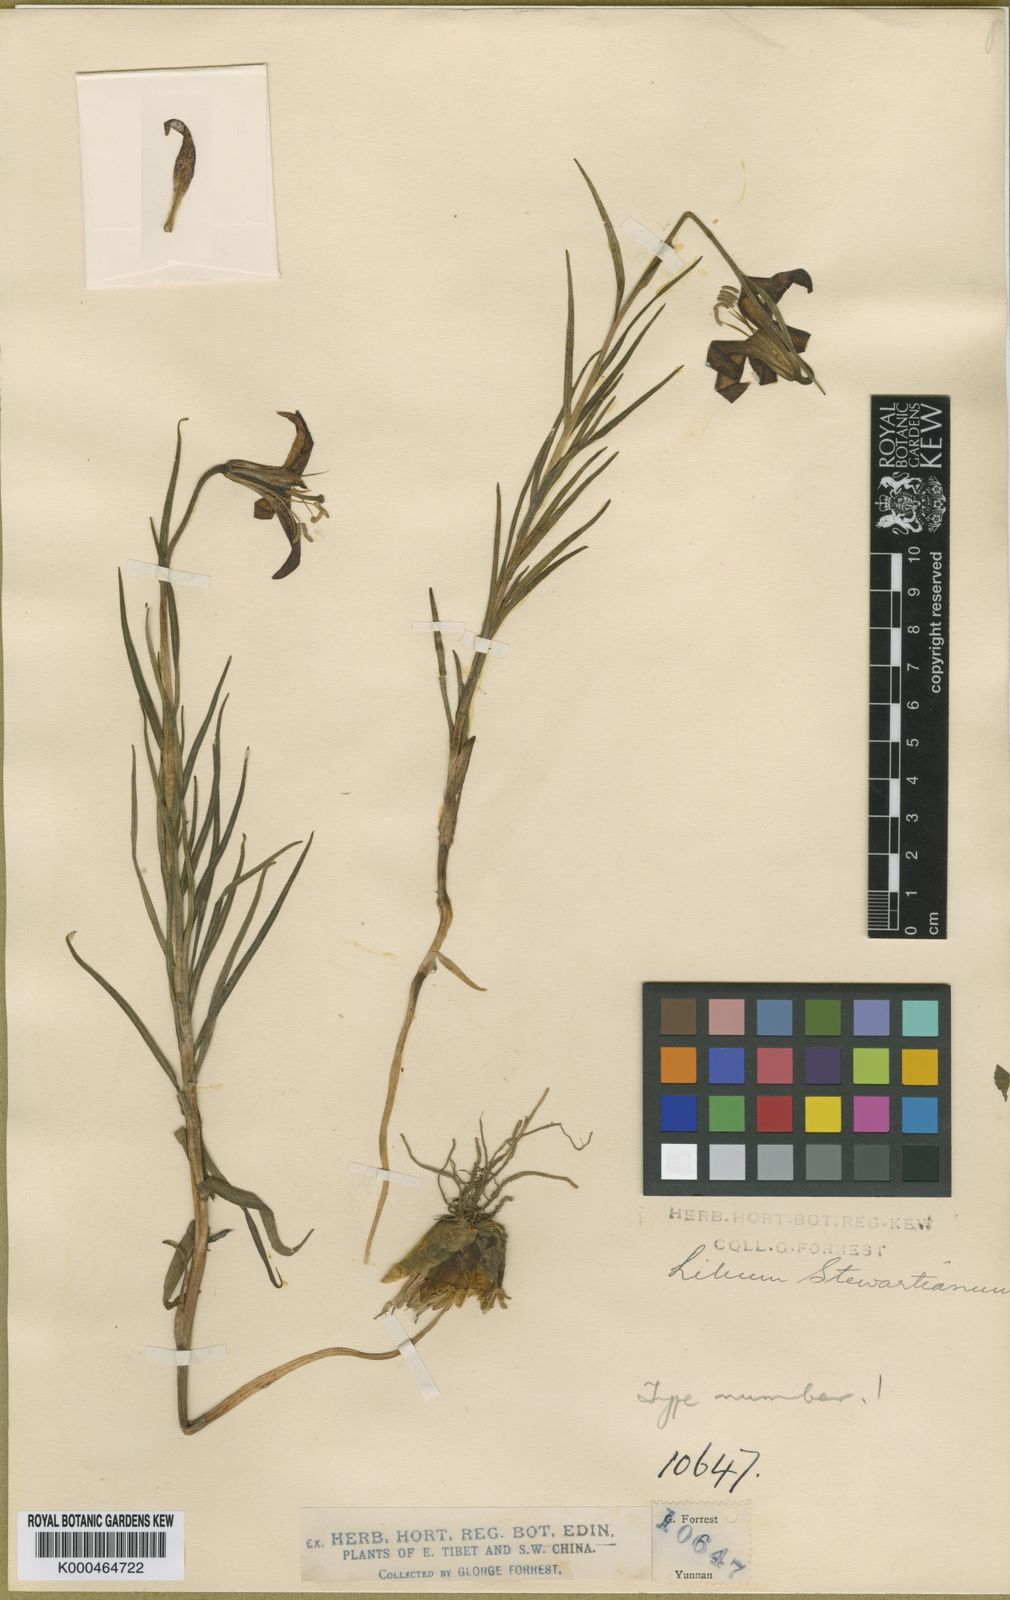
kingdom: Plantae
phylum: Tracheophyta
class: Liliopsida
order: Liliales
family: Liliaceae
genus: Lilium
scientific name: Lilium stewartianum
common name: Stewart's lily
